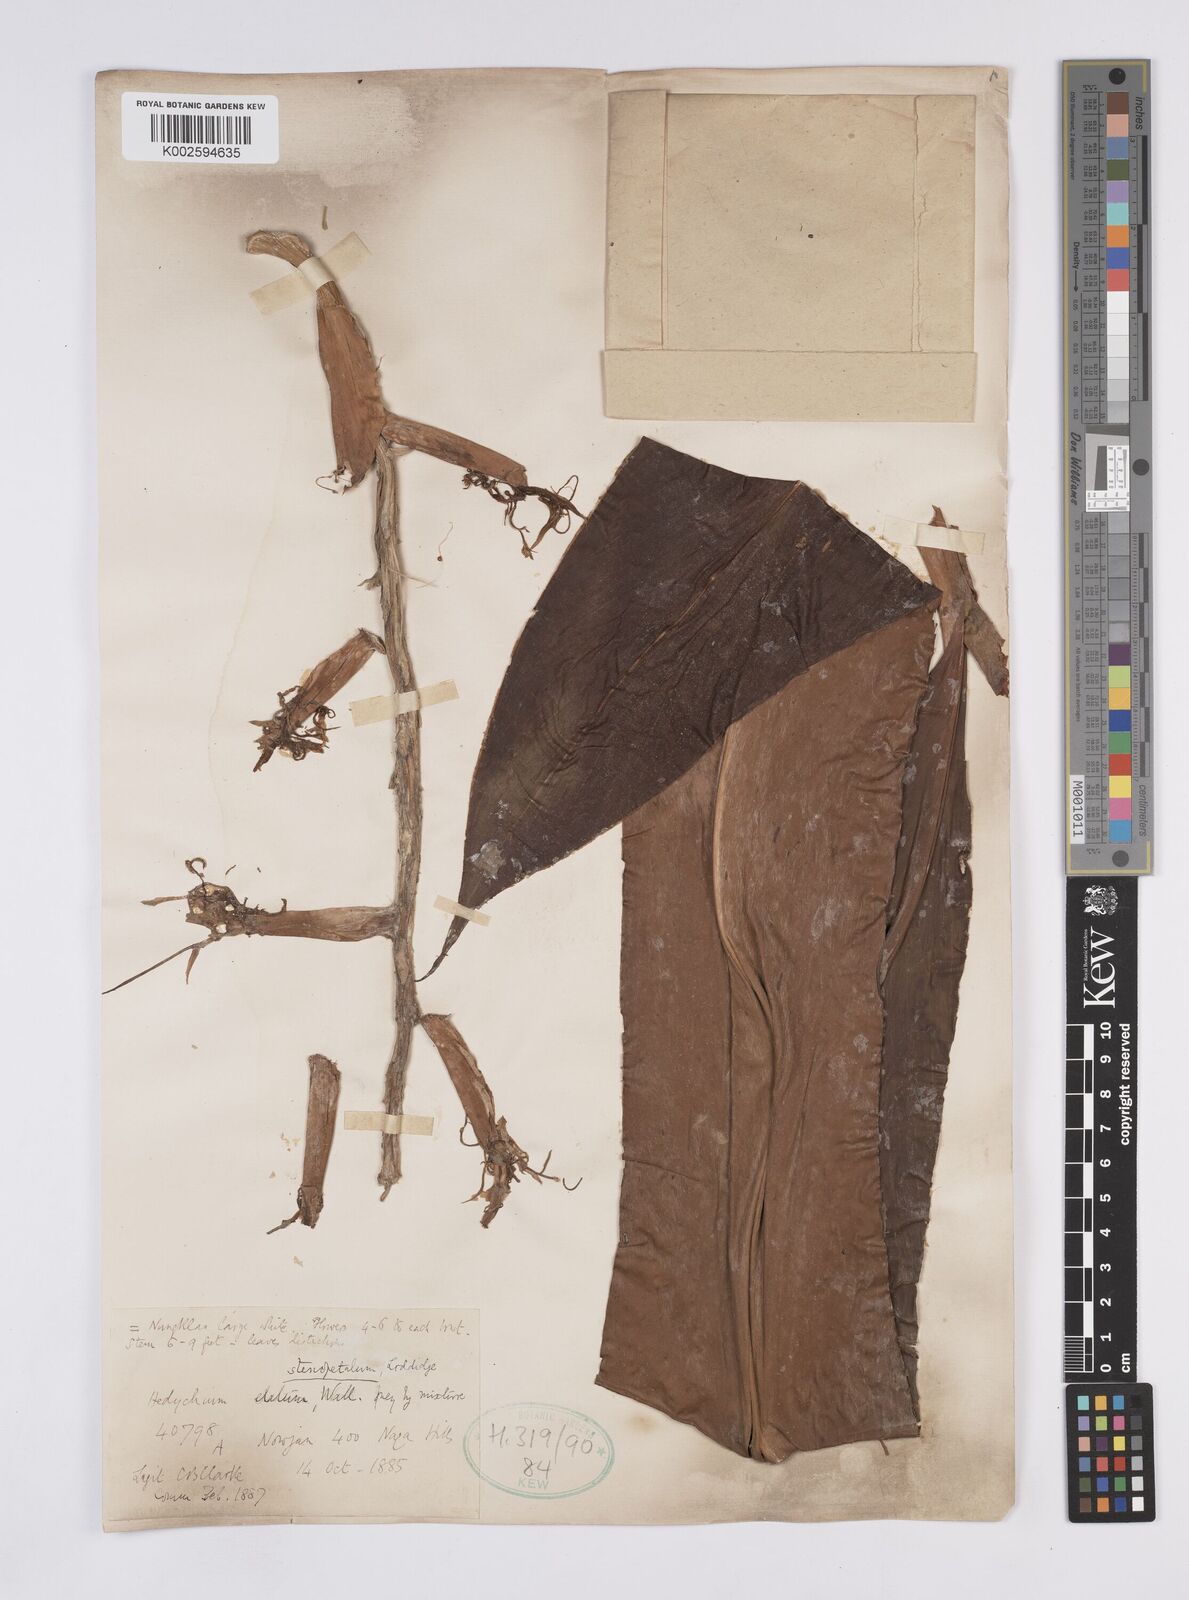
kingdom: Plantae
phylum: Tracheophyta
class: Liliopsida
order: Zingiberales
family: Zingiberaceae
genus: Hedychium
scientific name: Hedychium stenopetalum
